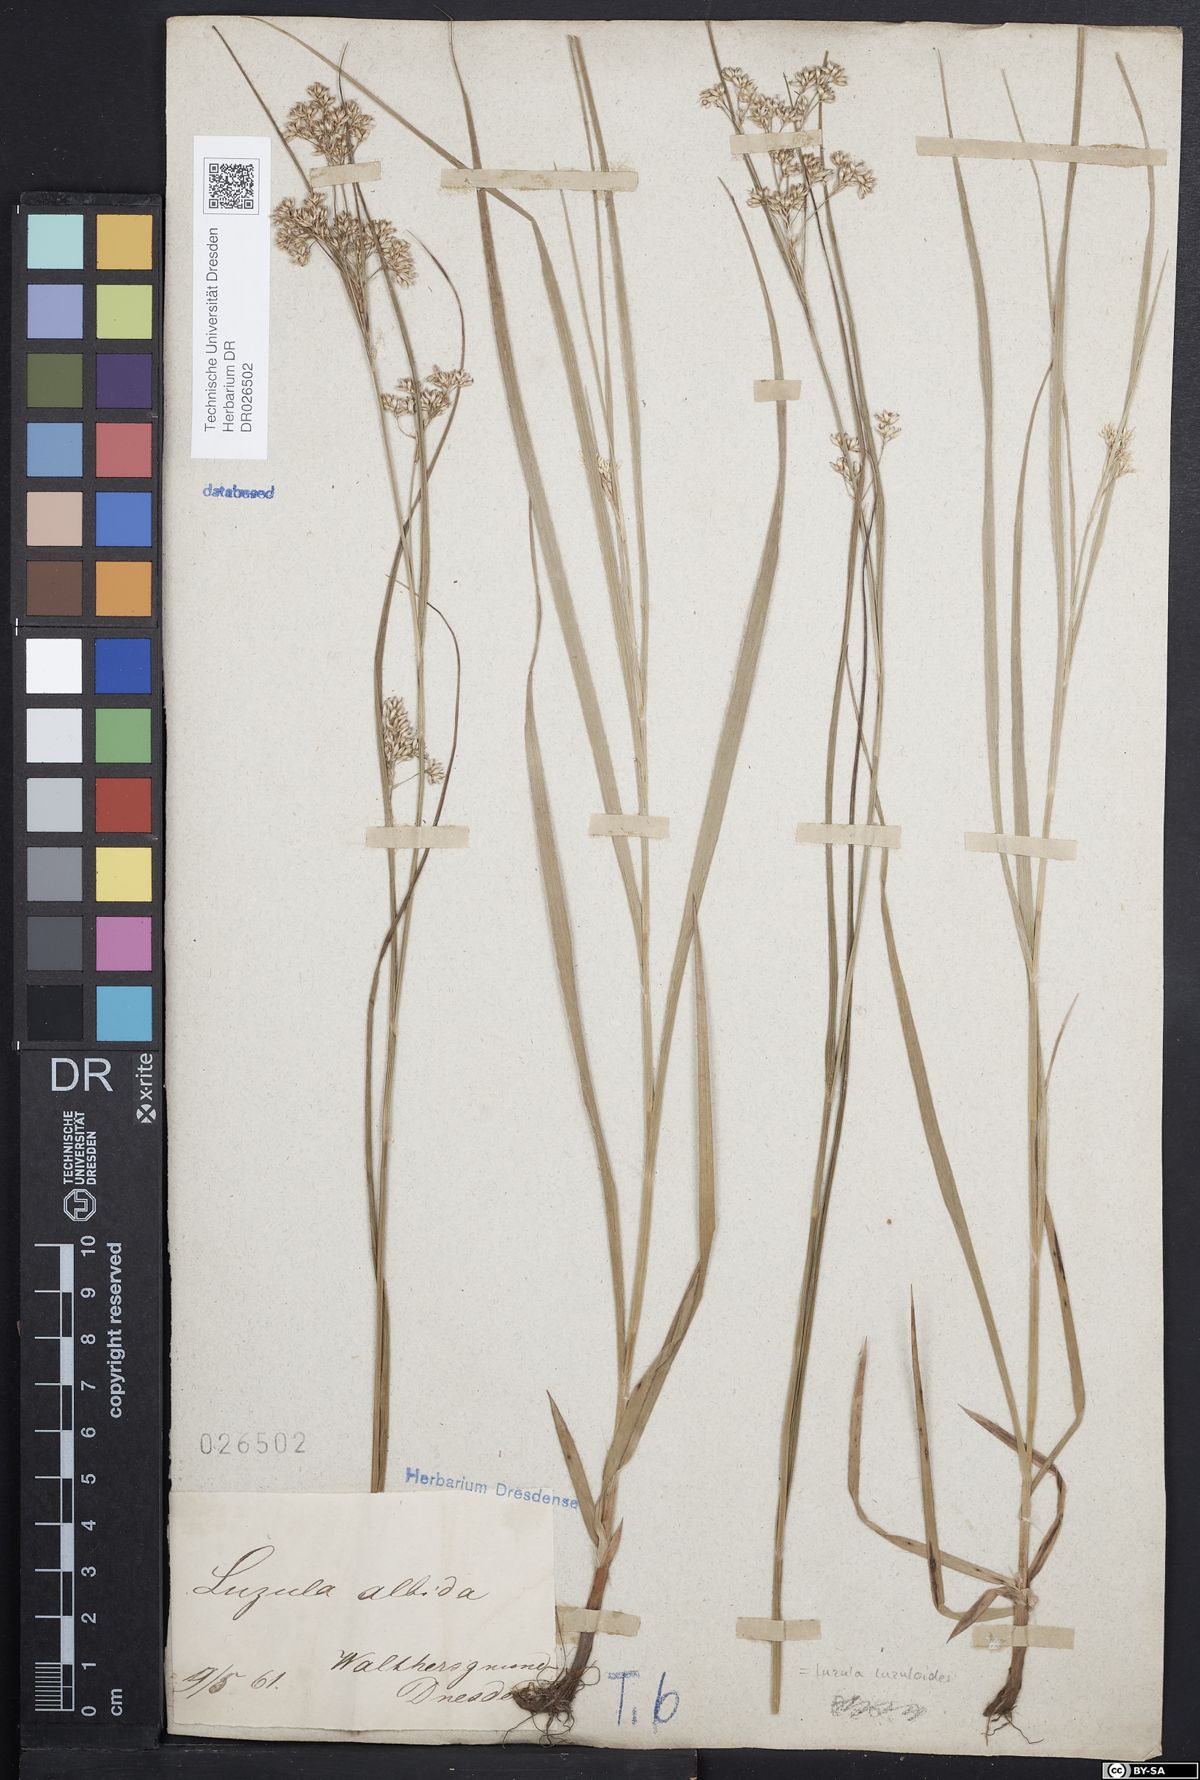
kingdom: Plantae
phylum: Tracheophyta
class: Liliopsida
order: Poales
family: Juncaceae
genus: Luzula
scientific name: Luzula luzuloides
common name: White wood-rush
